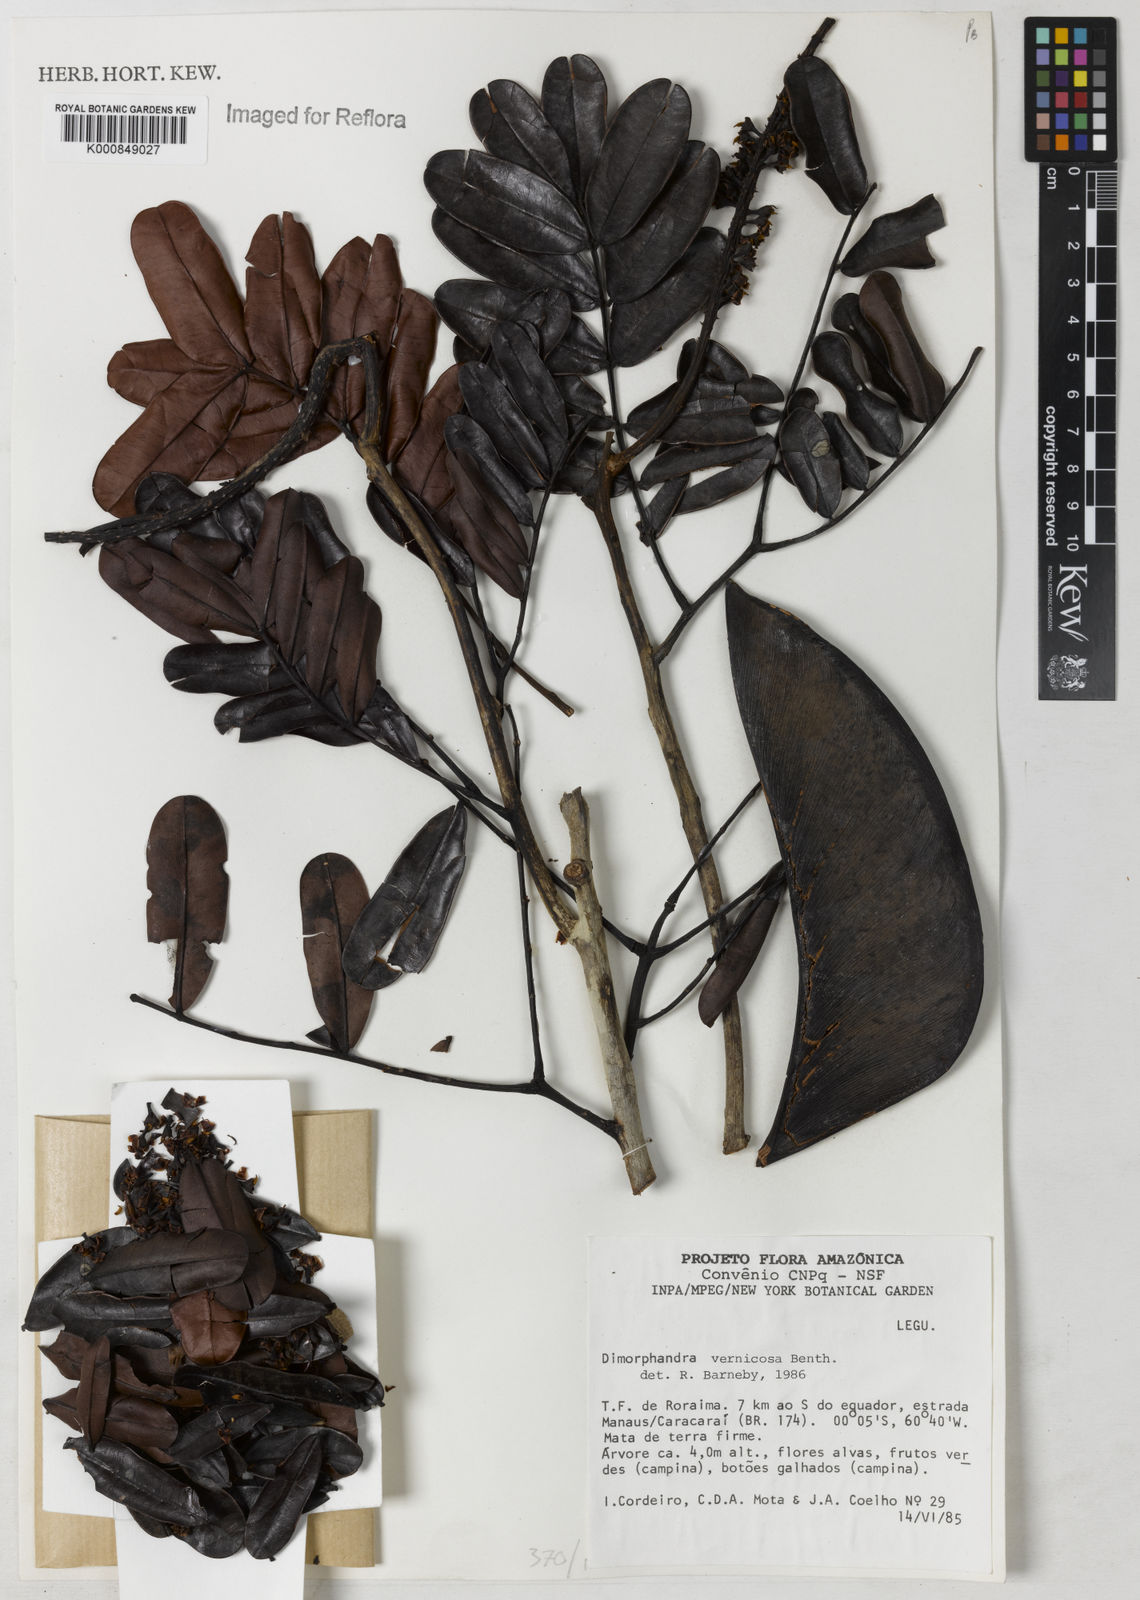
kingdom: Plantae
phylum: Tracheophyta
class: Magnoliopsida
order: Fabales
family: Fabaceae
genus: Dimorphandra
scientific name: Dimorphandra vernicosa
